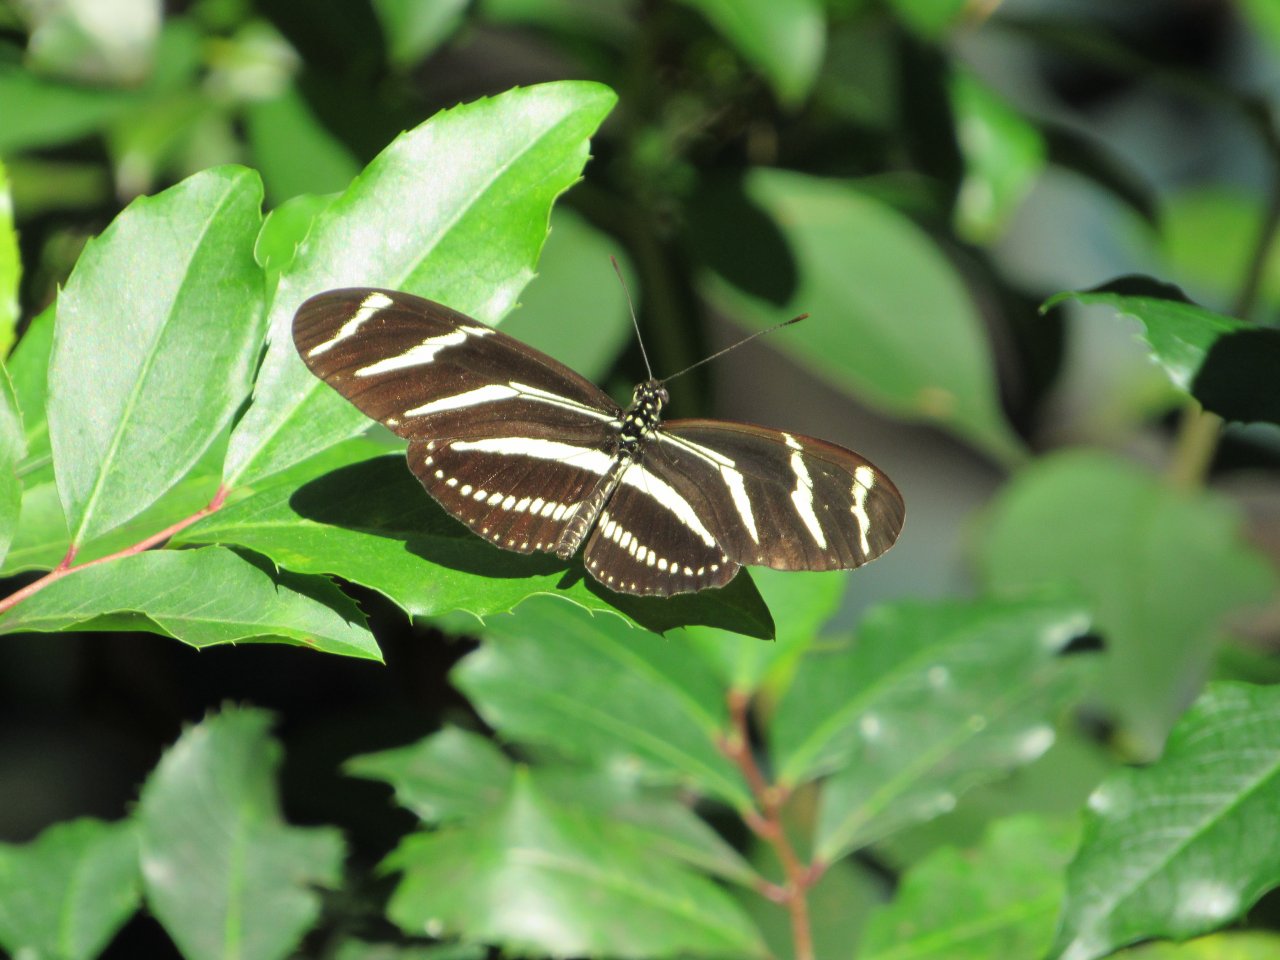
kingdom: Animalia
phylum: Arthropoda
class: Insecta
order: Lepidoptera
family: Nymphalidae
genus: Heliconius
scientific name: Heliconius charithonia
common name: Zebra Longwing
